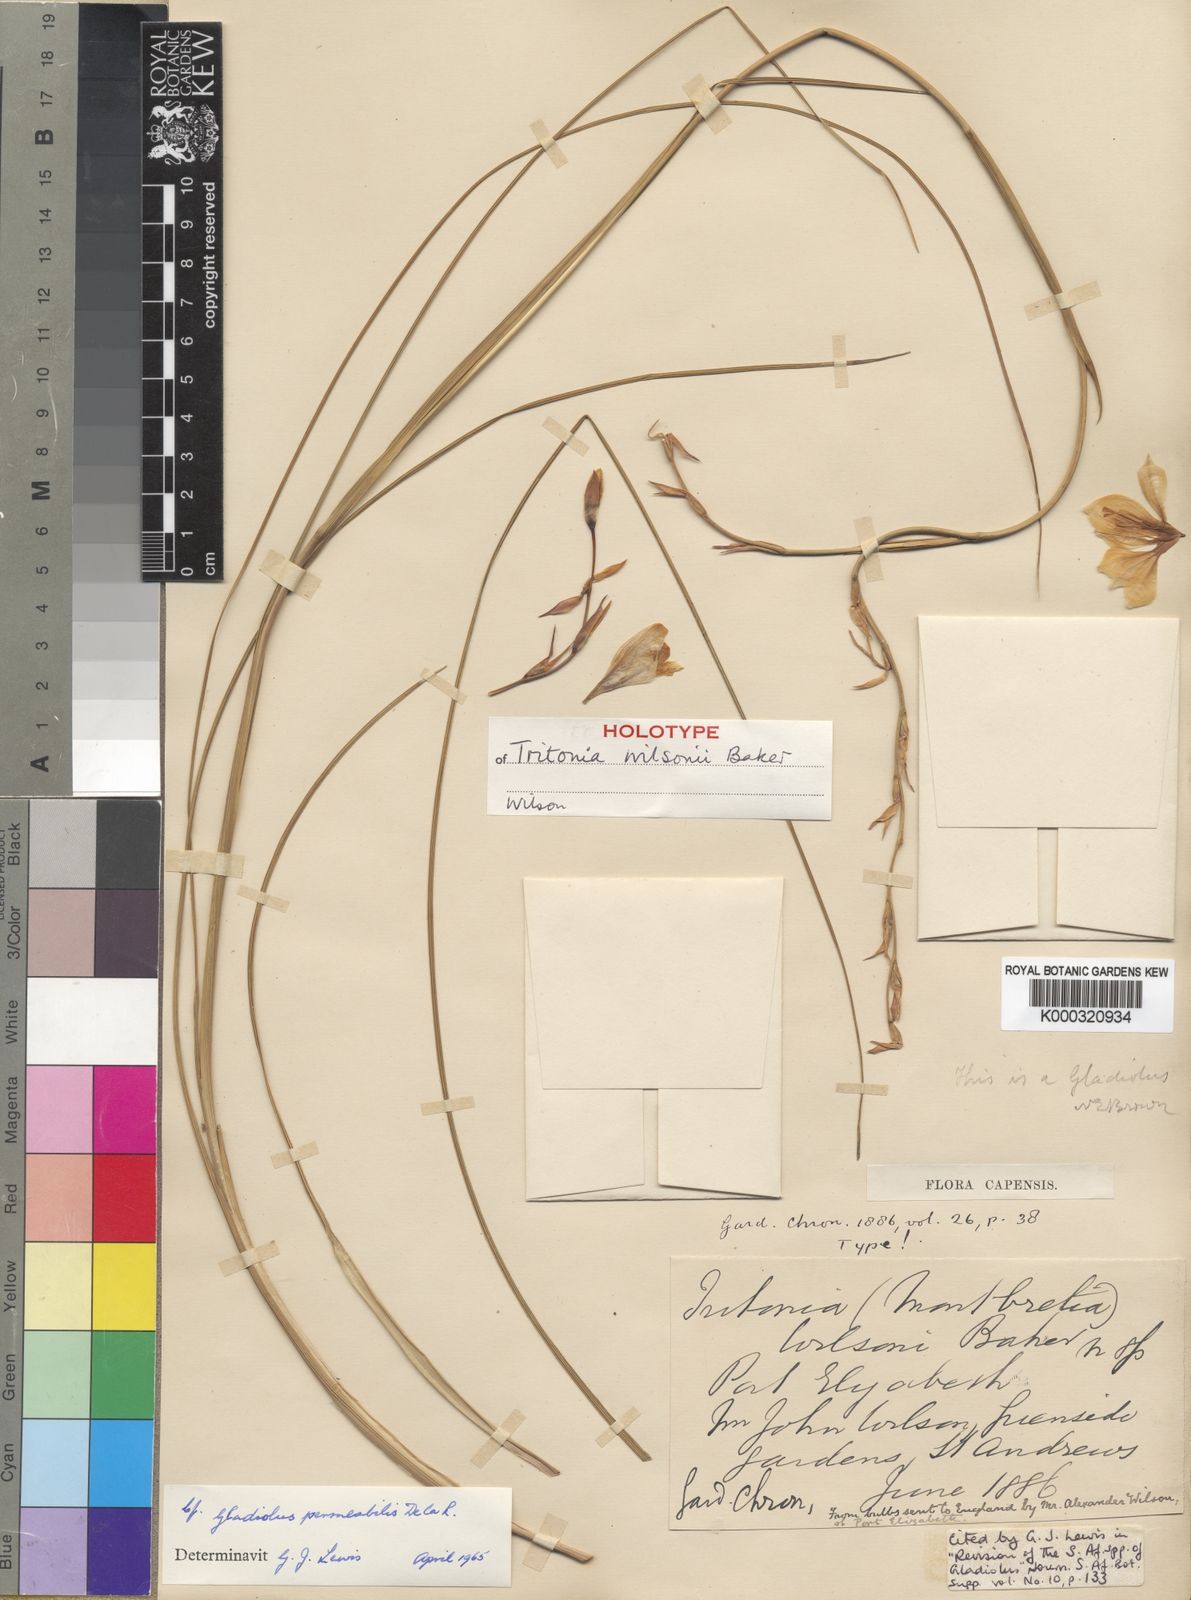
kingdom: Plantae
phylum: Tracheophyta
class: Liliopsida
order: Asparagales
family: Iridaceae
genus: Gladiolus
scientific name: Gladiolus wilsonii
